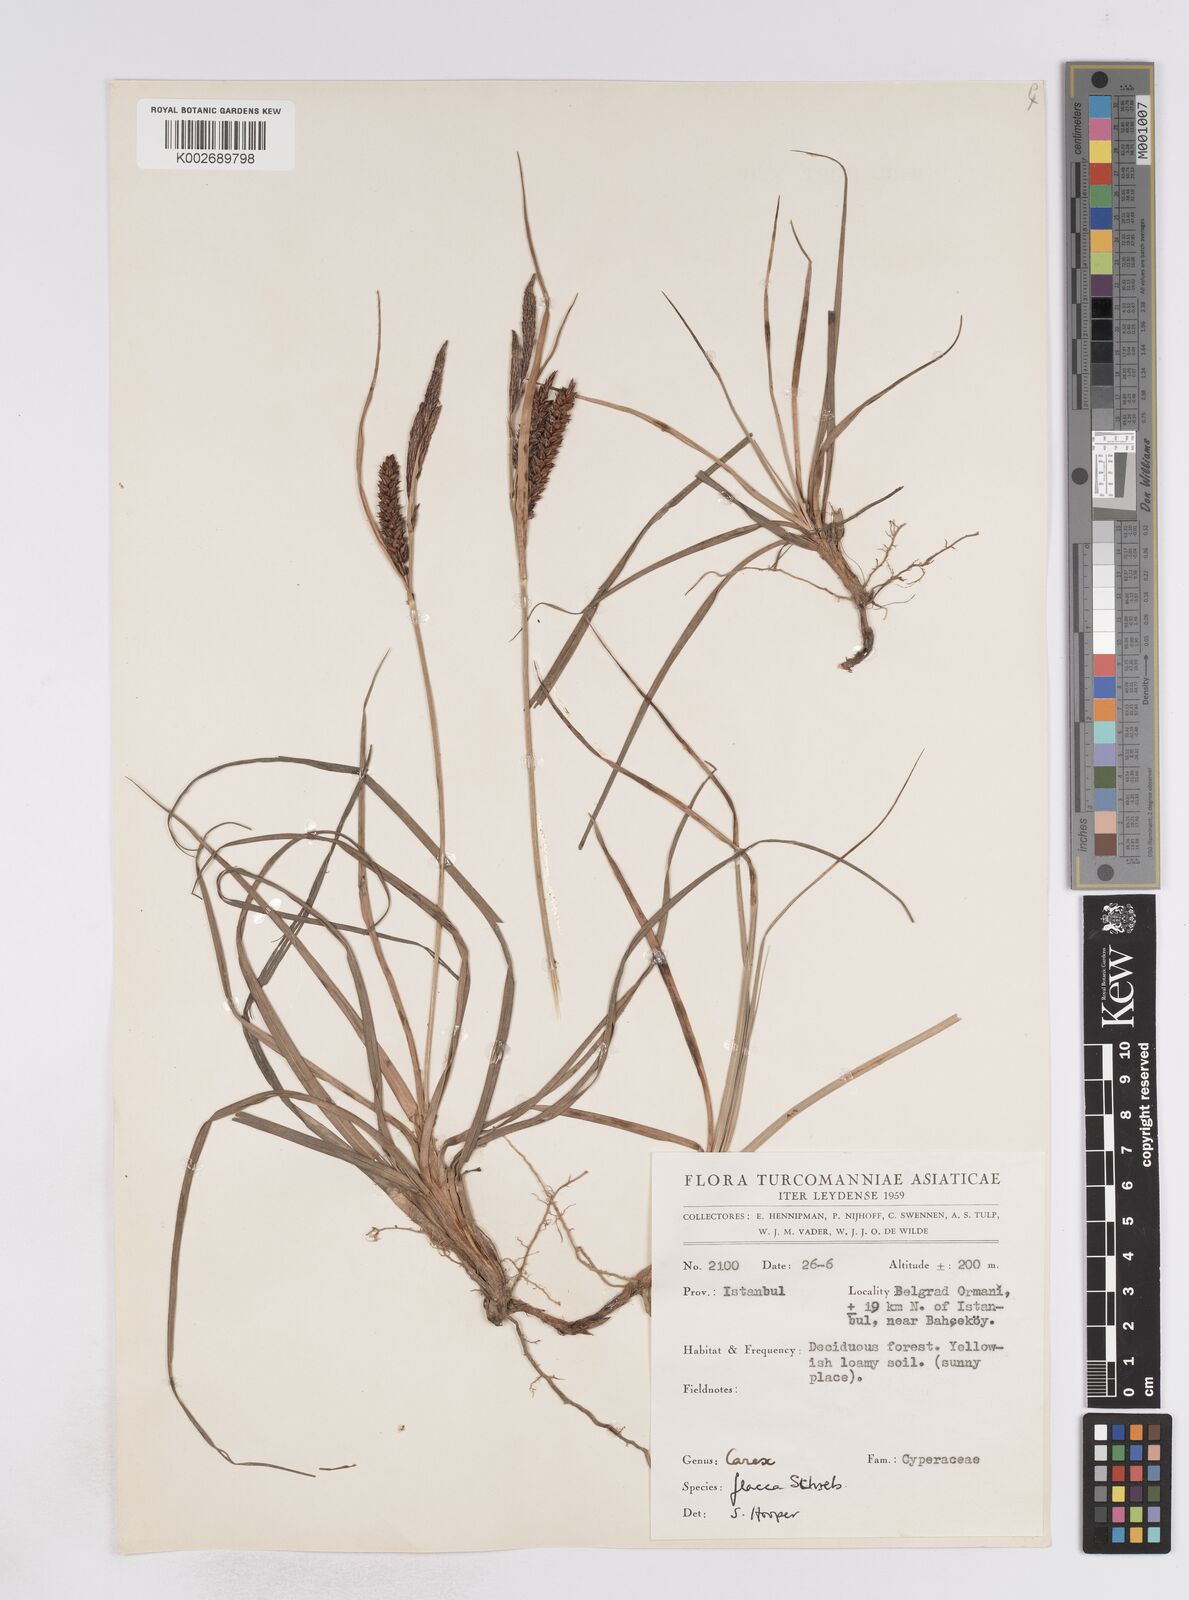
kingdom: Plantae
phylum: Tracheophyta
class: Liliopsida
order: Poales
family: Cyperaceae
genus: Carex
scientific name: Carex flacca
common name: Glaucous sedge
